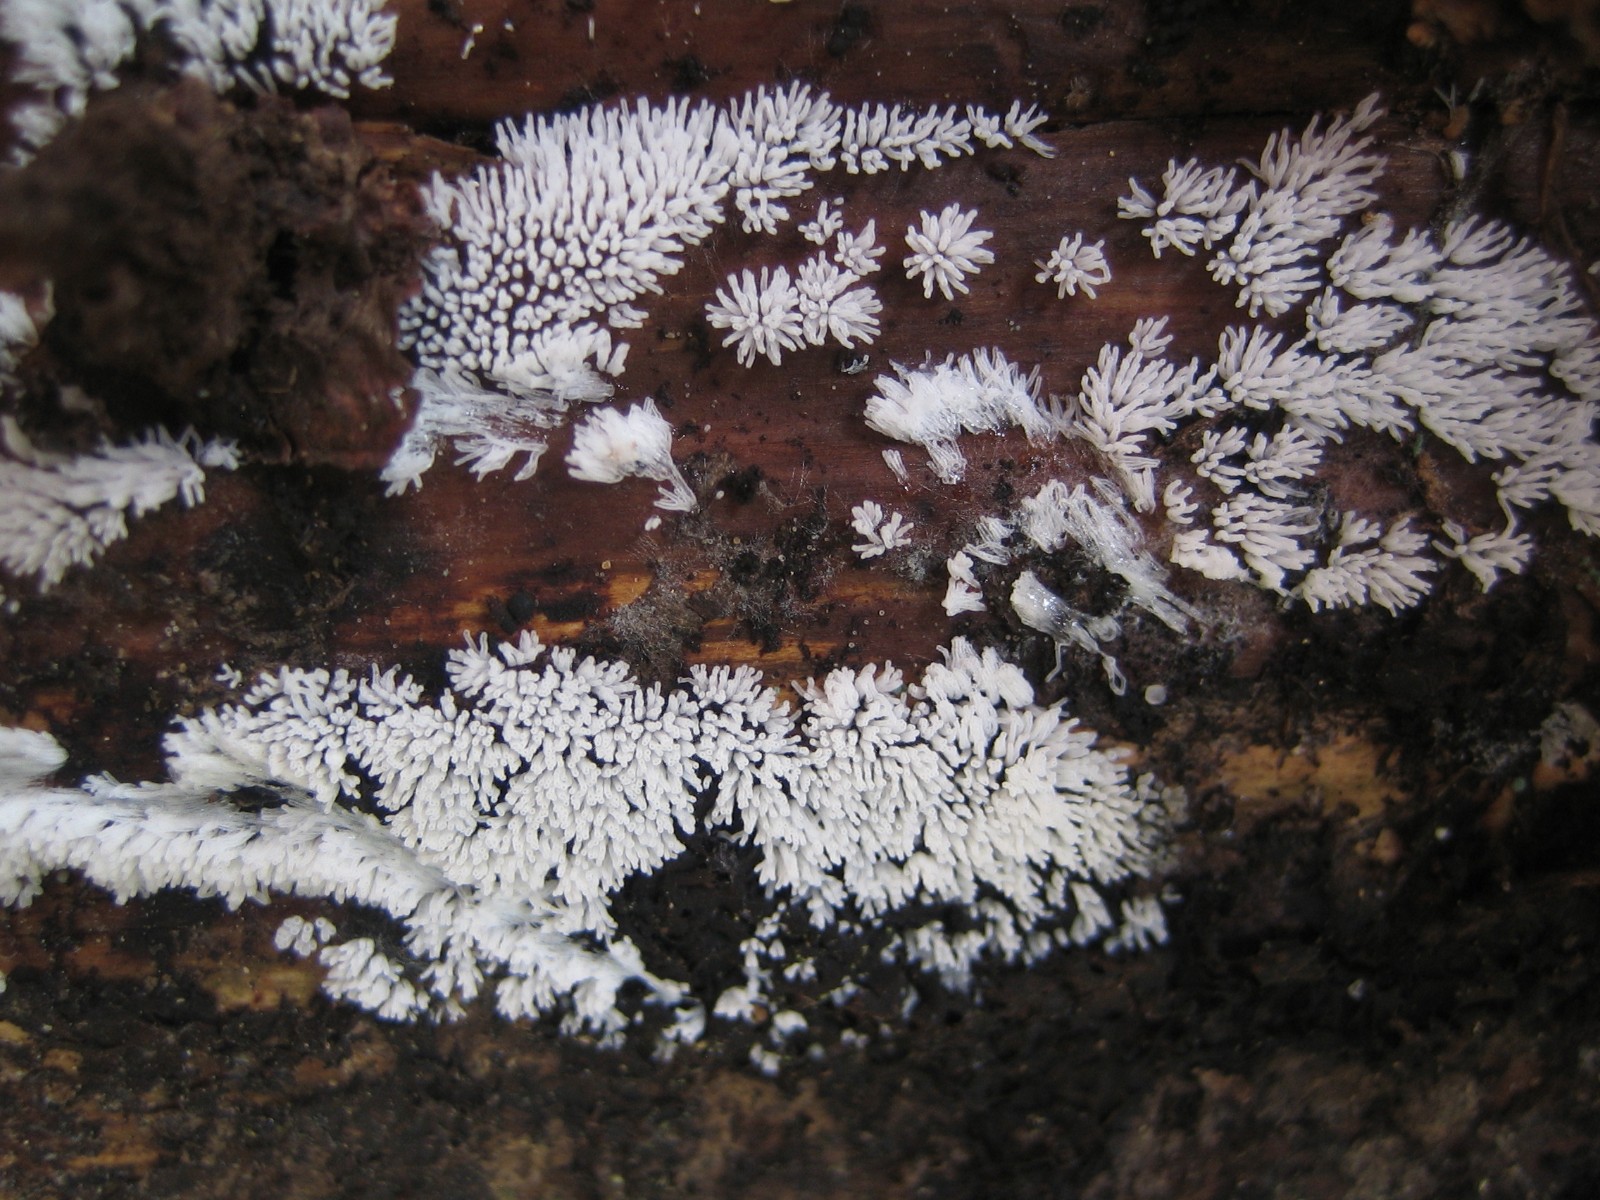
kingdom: Protozoa
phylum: Mycetozoa
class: Protosteliomycetes
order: Ceratiomyxales
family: Ceratiomyxaceae
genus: Ceratiomyxa
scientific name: Ceratiomyxa fruticulosa
